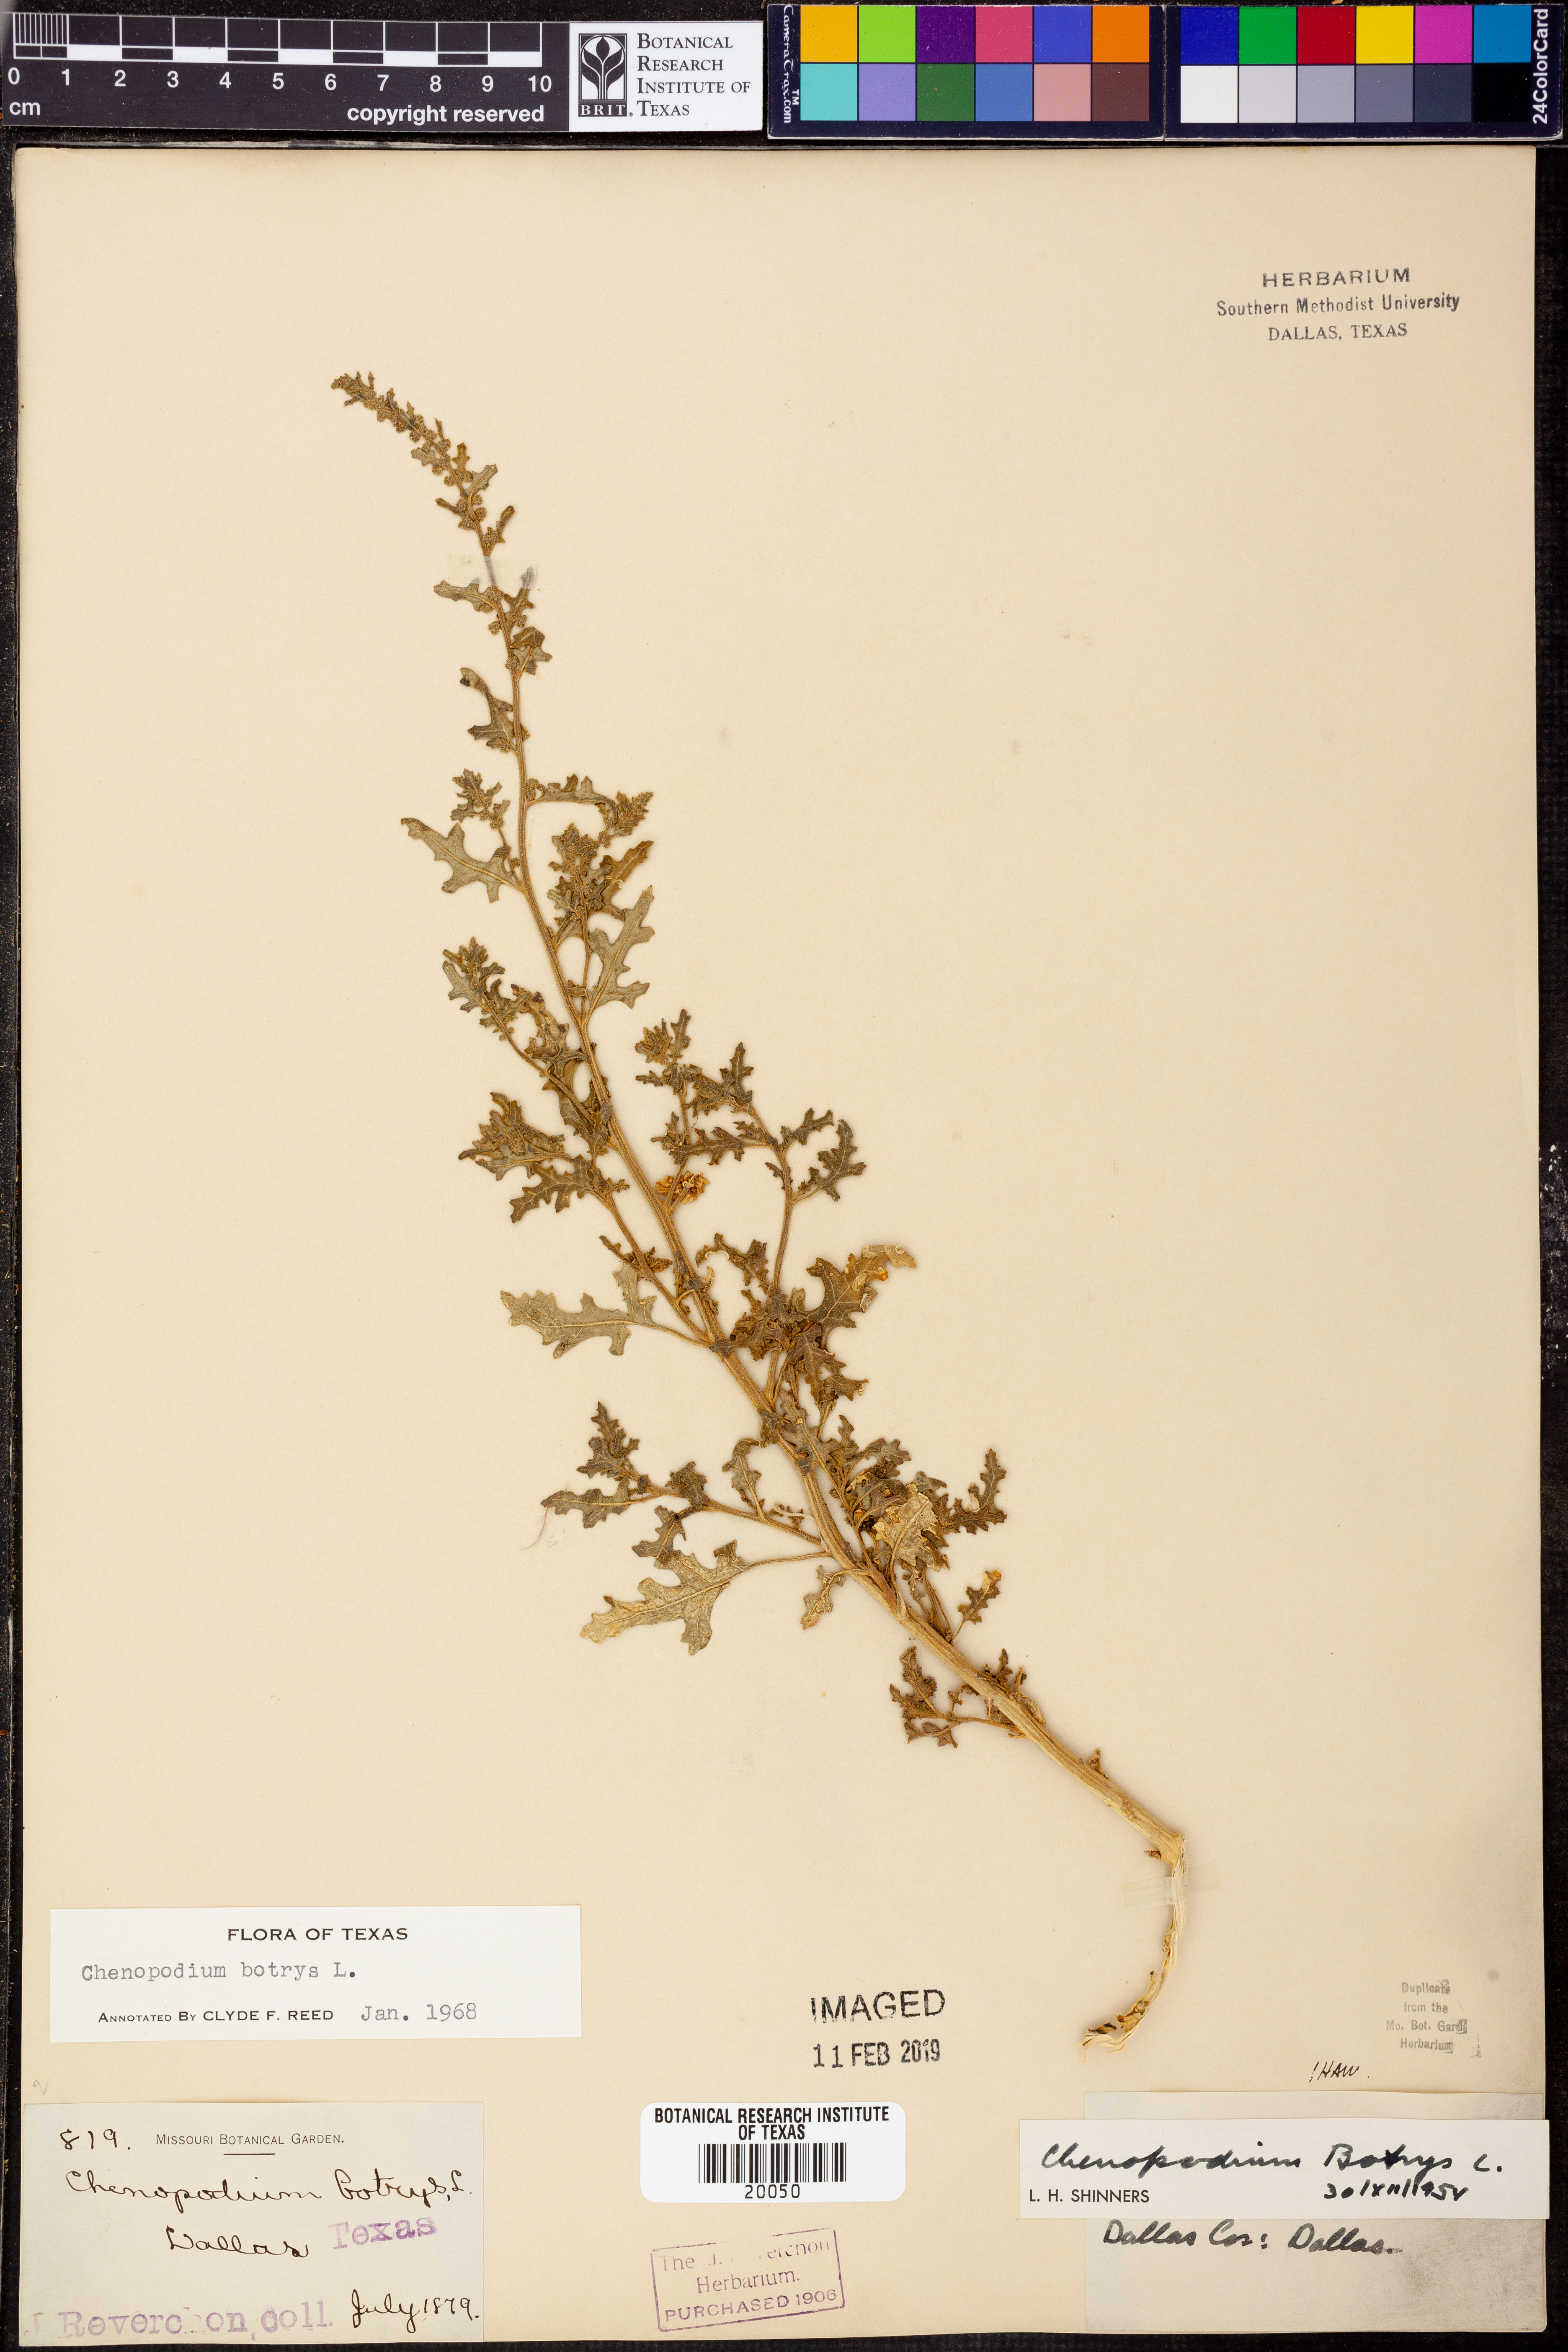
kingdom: Plantae
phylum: Tracheophyta
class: Magnoliopsida
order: Caryophyllales
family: Amaranthaceae
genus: Dysphania
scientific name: Dysphania botrys
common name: Feather-geranium
